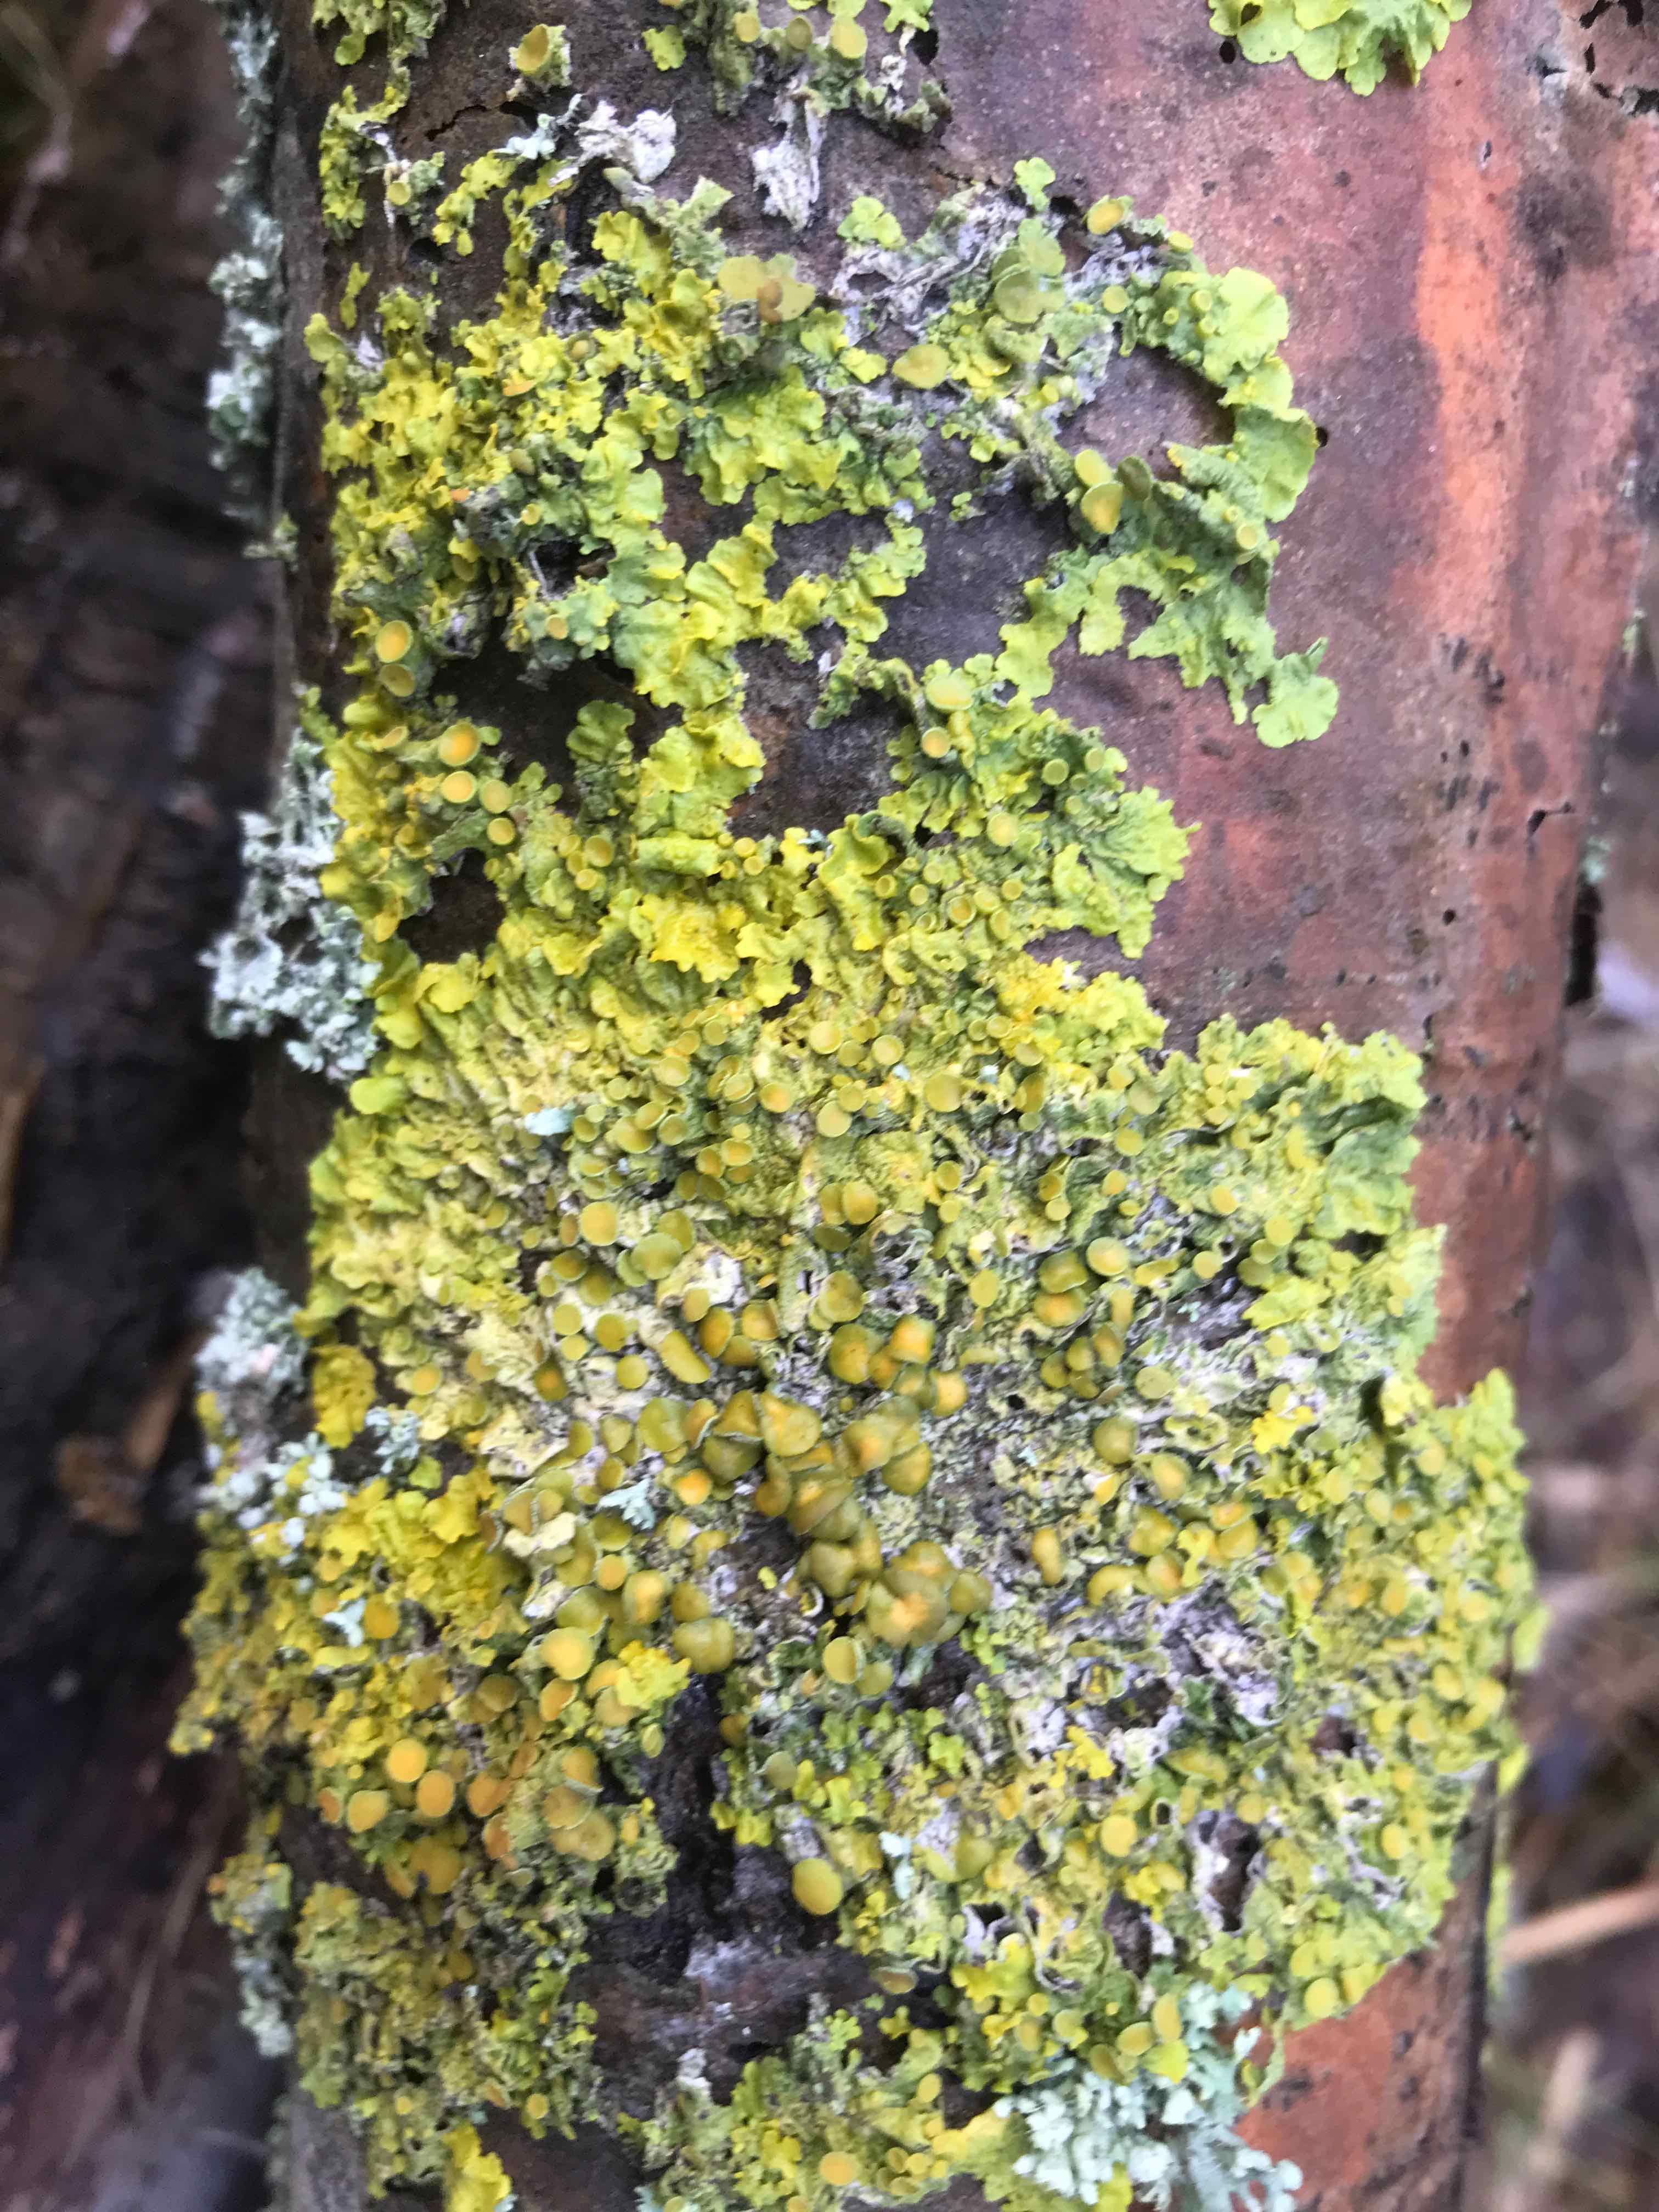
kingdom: Fungi
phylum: Ascomycota
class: Lecanoromycetes
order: Teloschistales
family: Teloschistaceae
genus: Xanthoria
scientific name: Xanthoria parietina
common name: almindelig væggelav
